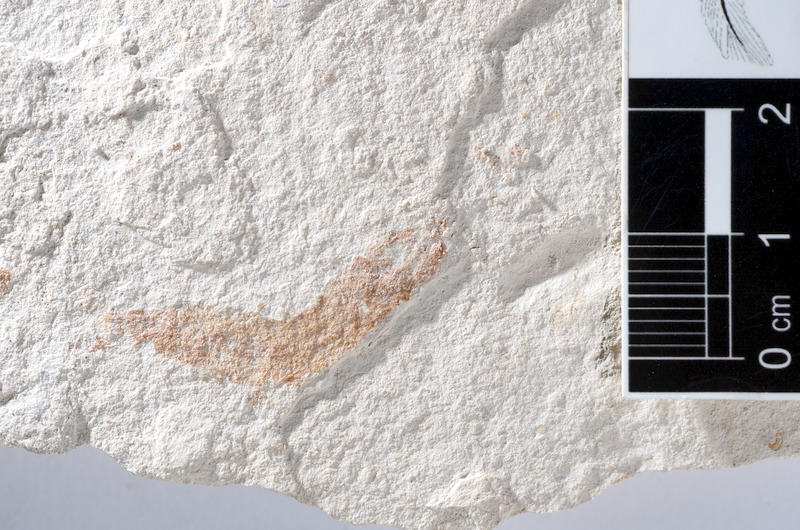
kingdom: Animalia
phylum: Chordata
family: Ascalaboidae
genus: Tharsis
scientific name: Tharsis dubius
